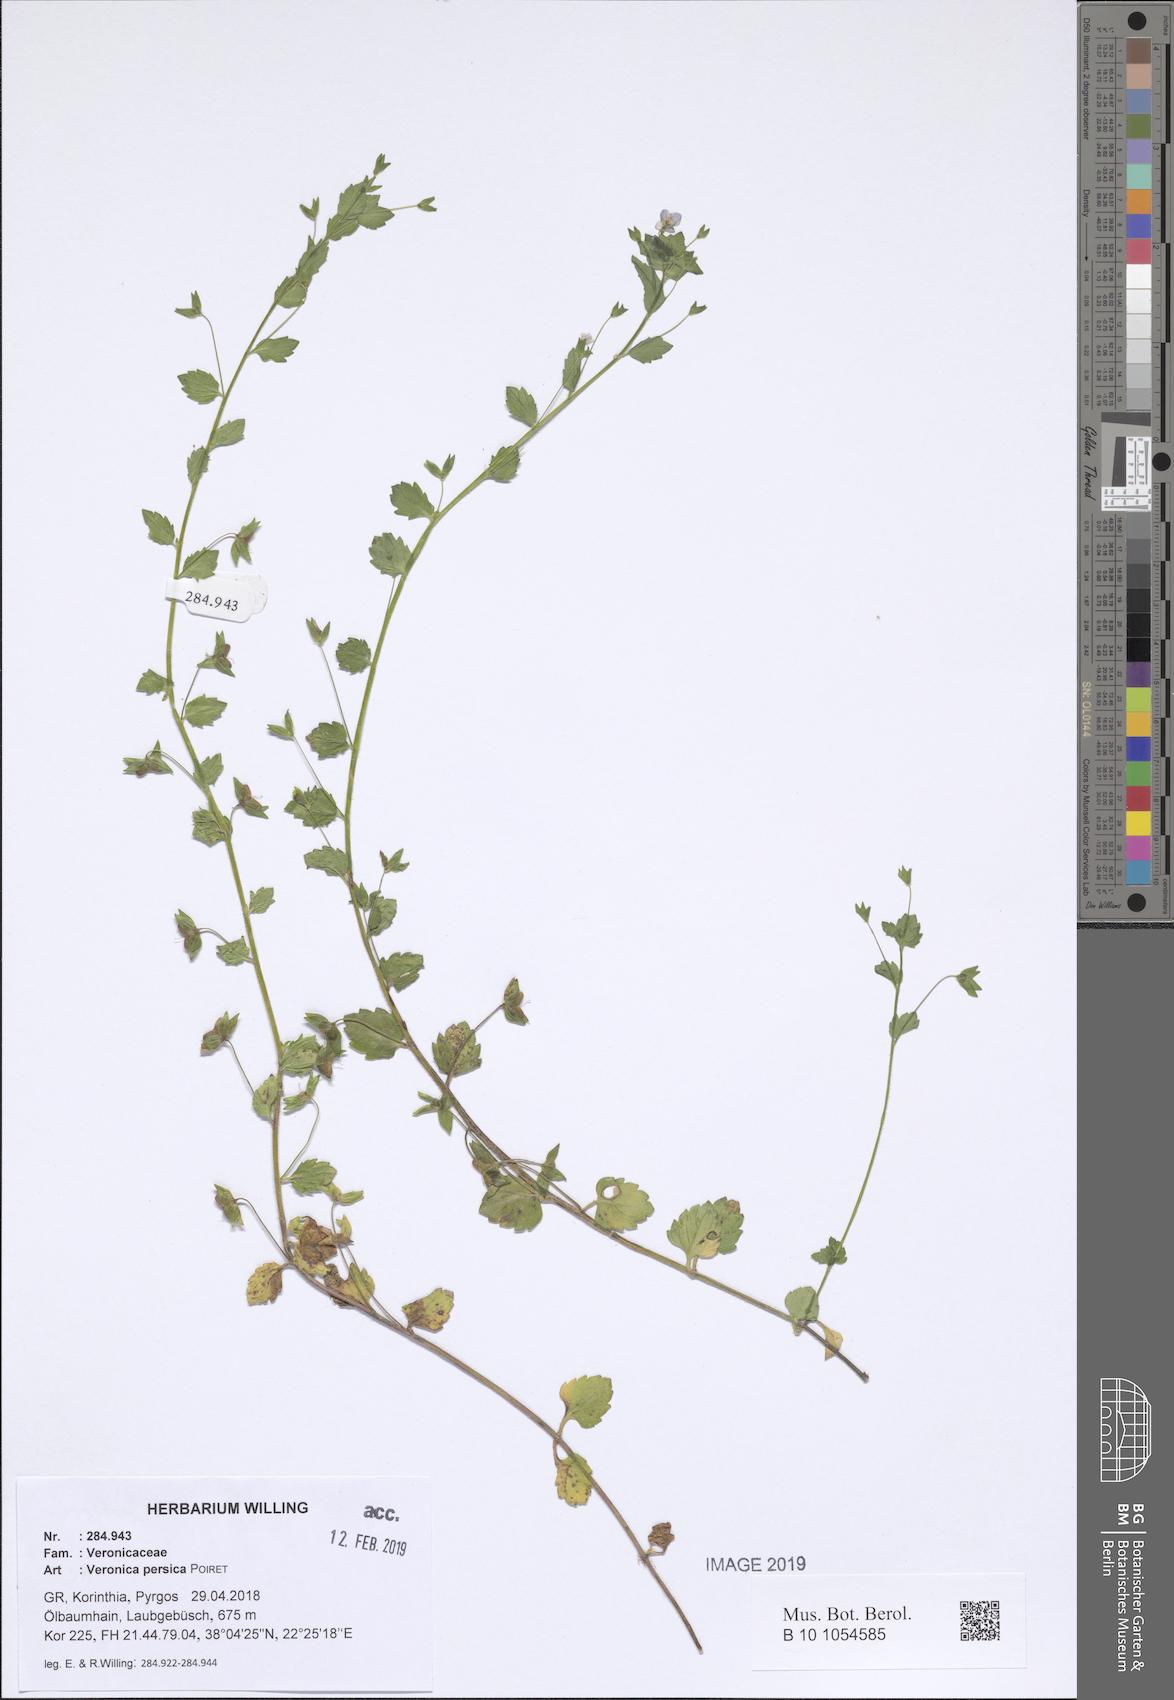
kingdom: Plantae
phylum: Tracheophyta
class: Magnoliopsida
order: Lamiales
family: Plantaginaceae
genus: Veronica
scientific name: Veronica persica
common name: Common field-speedwell
